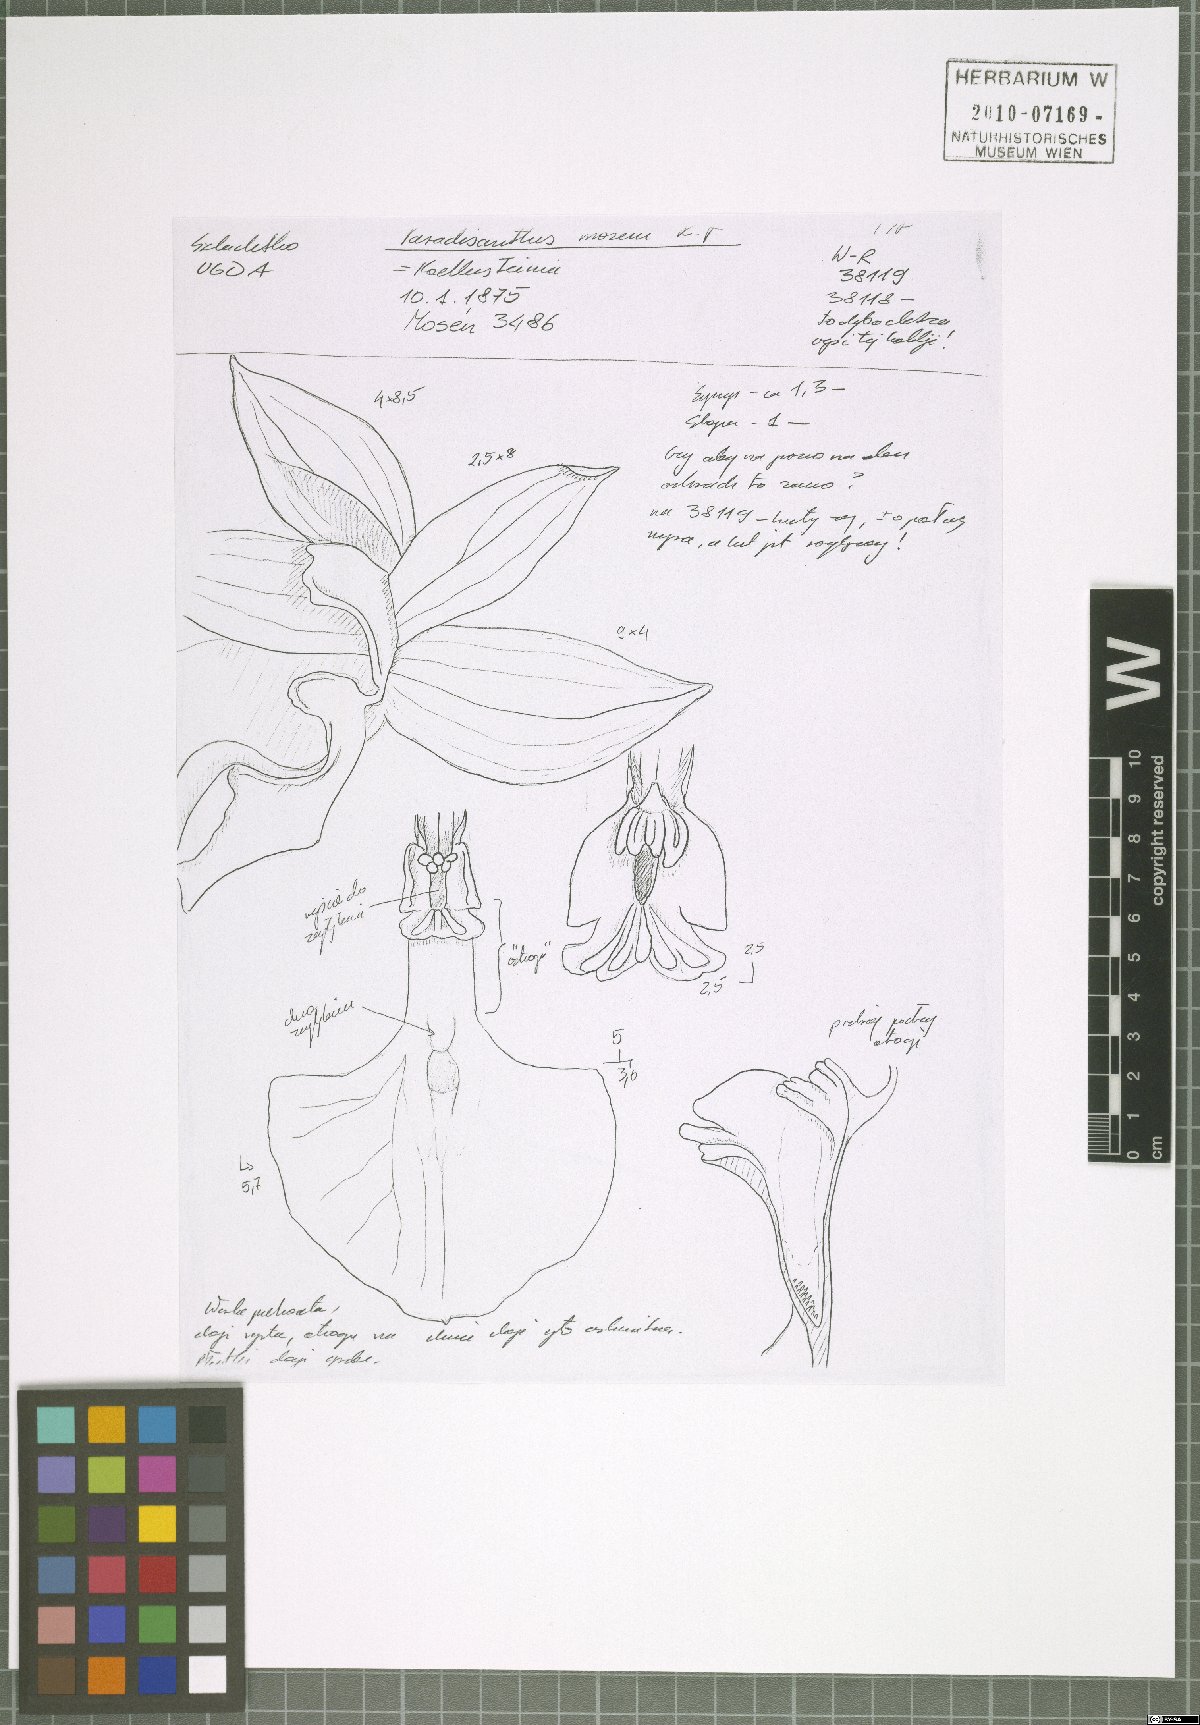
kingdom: Plantae
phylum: Tracheophyta
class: Liliopsida
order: Asparagales
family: Orchidaceae
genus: Paradisanthus
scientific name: Paradisanthus bahiensis
